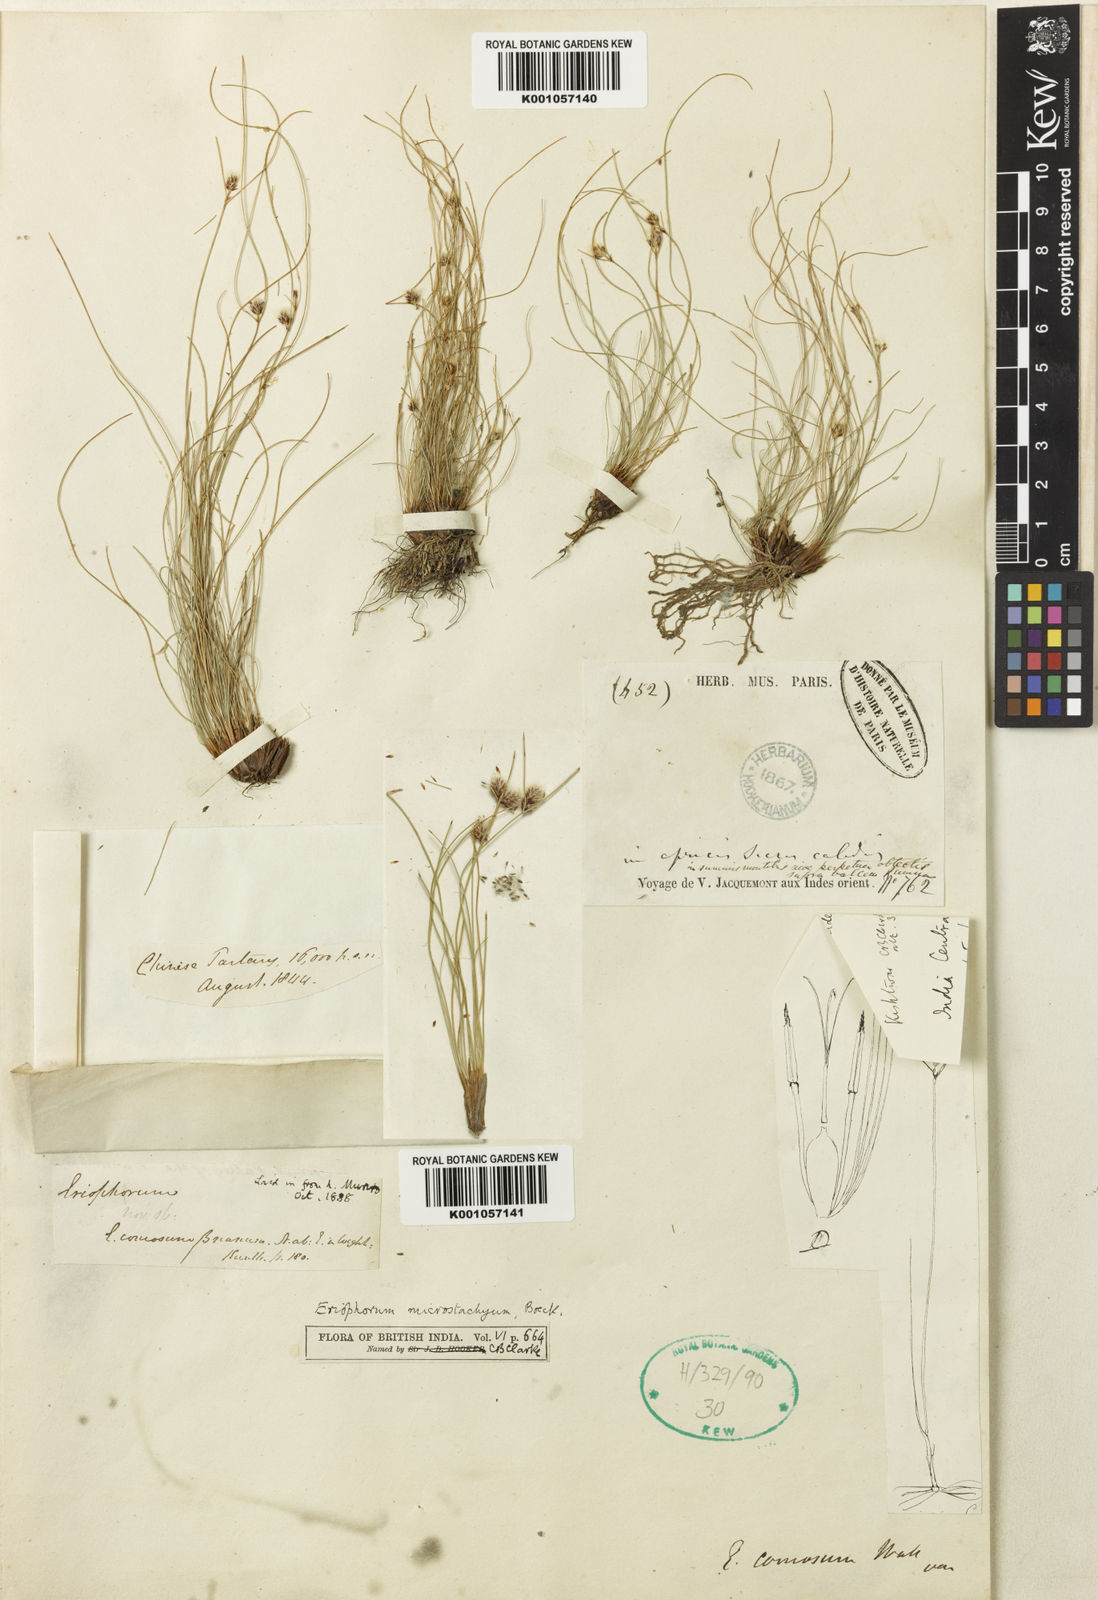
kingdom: Plantae
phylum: Tracheophyta
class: Liliopsida
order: Poales
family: Cyperaceae
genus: Erioscirpus
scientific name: Erioscirpus microstachyus
